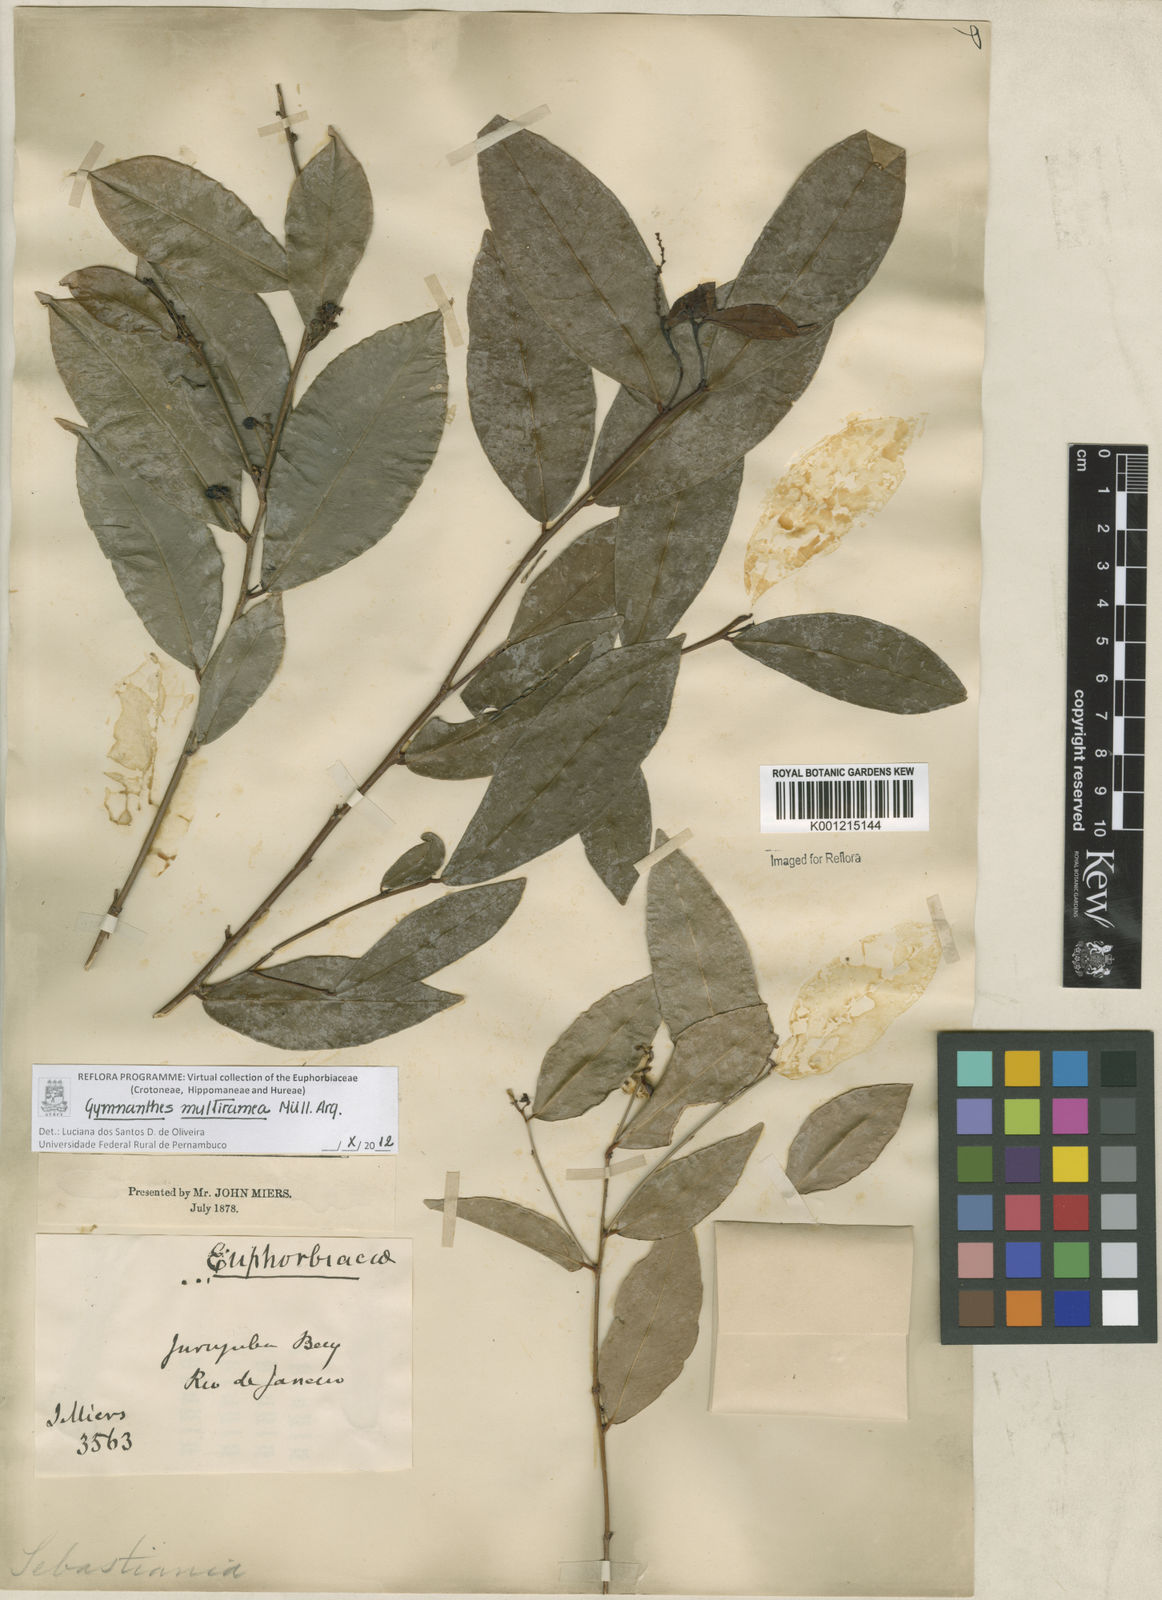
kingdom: Plantae
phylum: Tracheophyta
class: Magnoliopsida
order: Malpighiales
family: Euphorbiaceae
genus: Gymnanthes
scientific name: Gymnanthes
